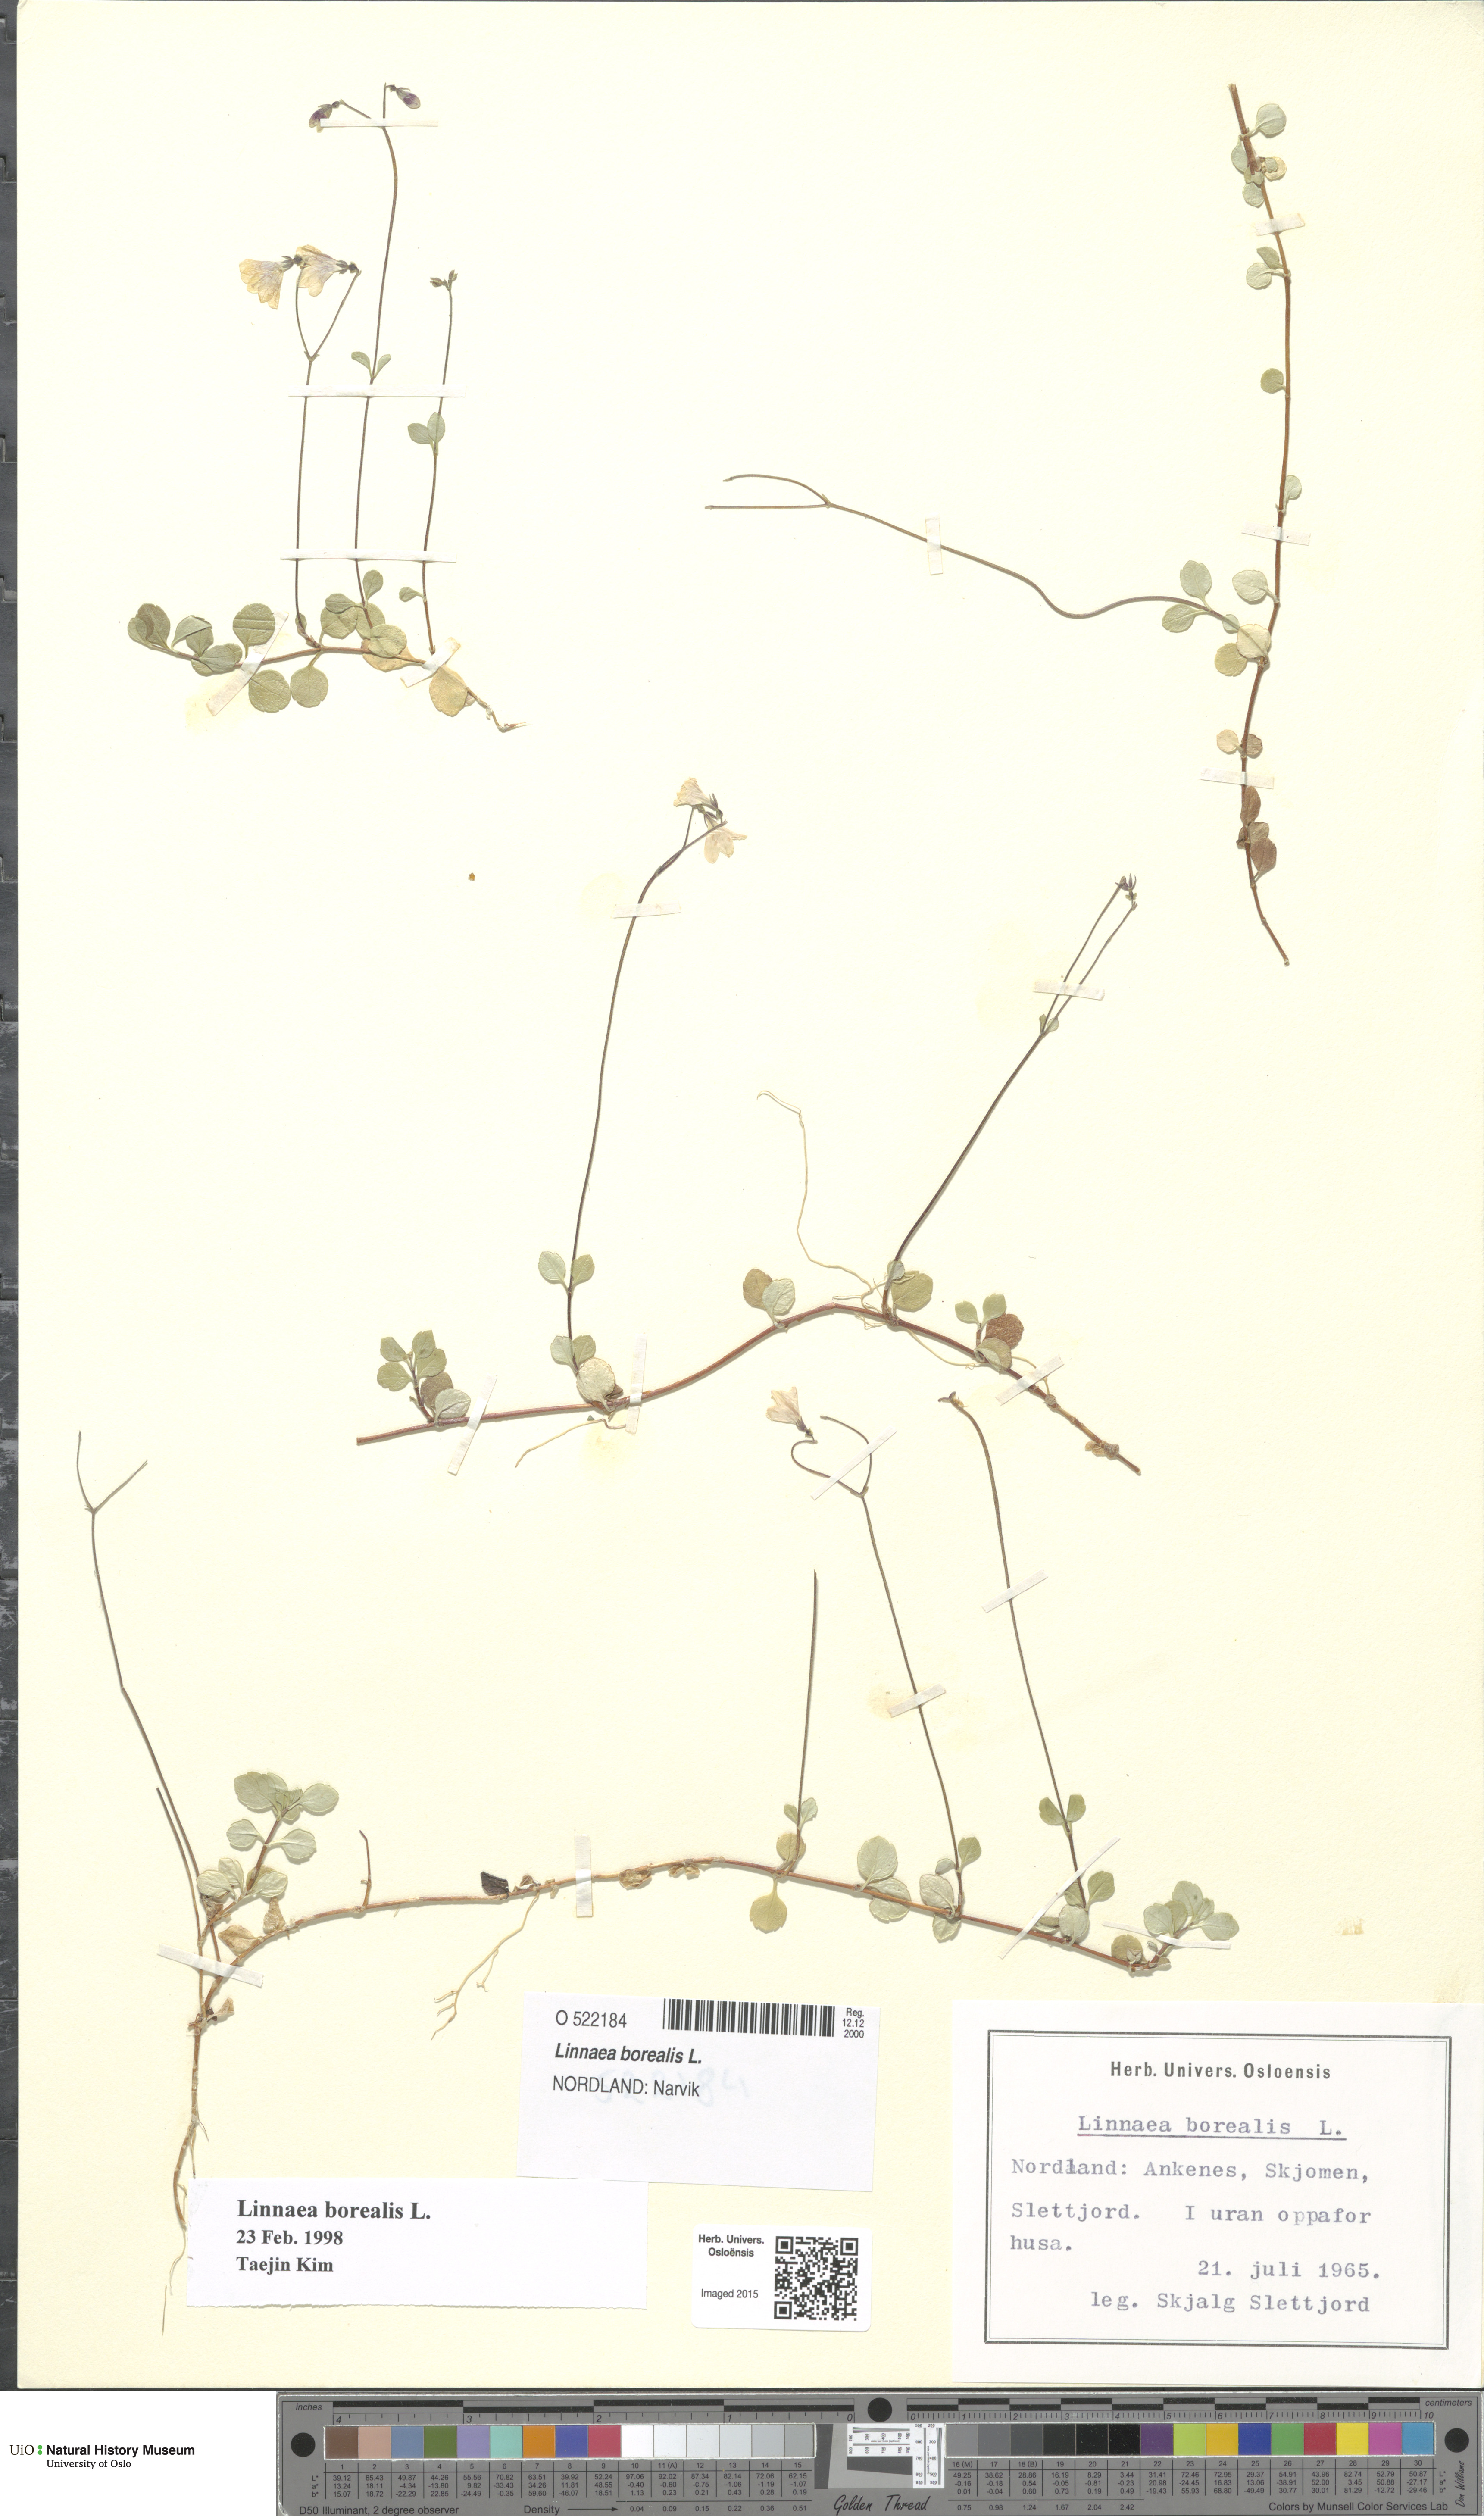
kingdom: Plantae
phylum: Tracheophyta
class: Magnoliopsida
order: Dipsacales
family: Caprifoliaceae
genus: Linnaea
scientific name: Linnaea borealis
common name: Twinflower
